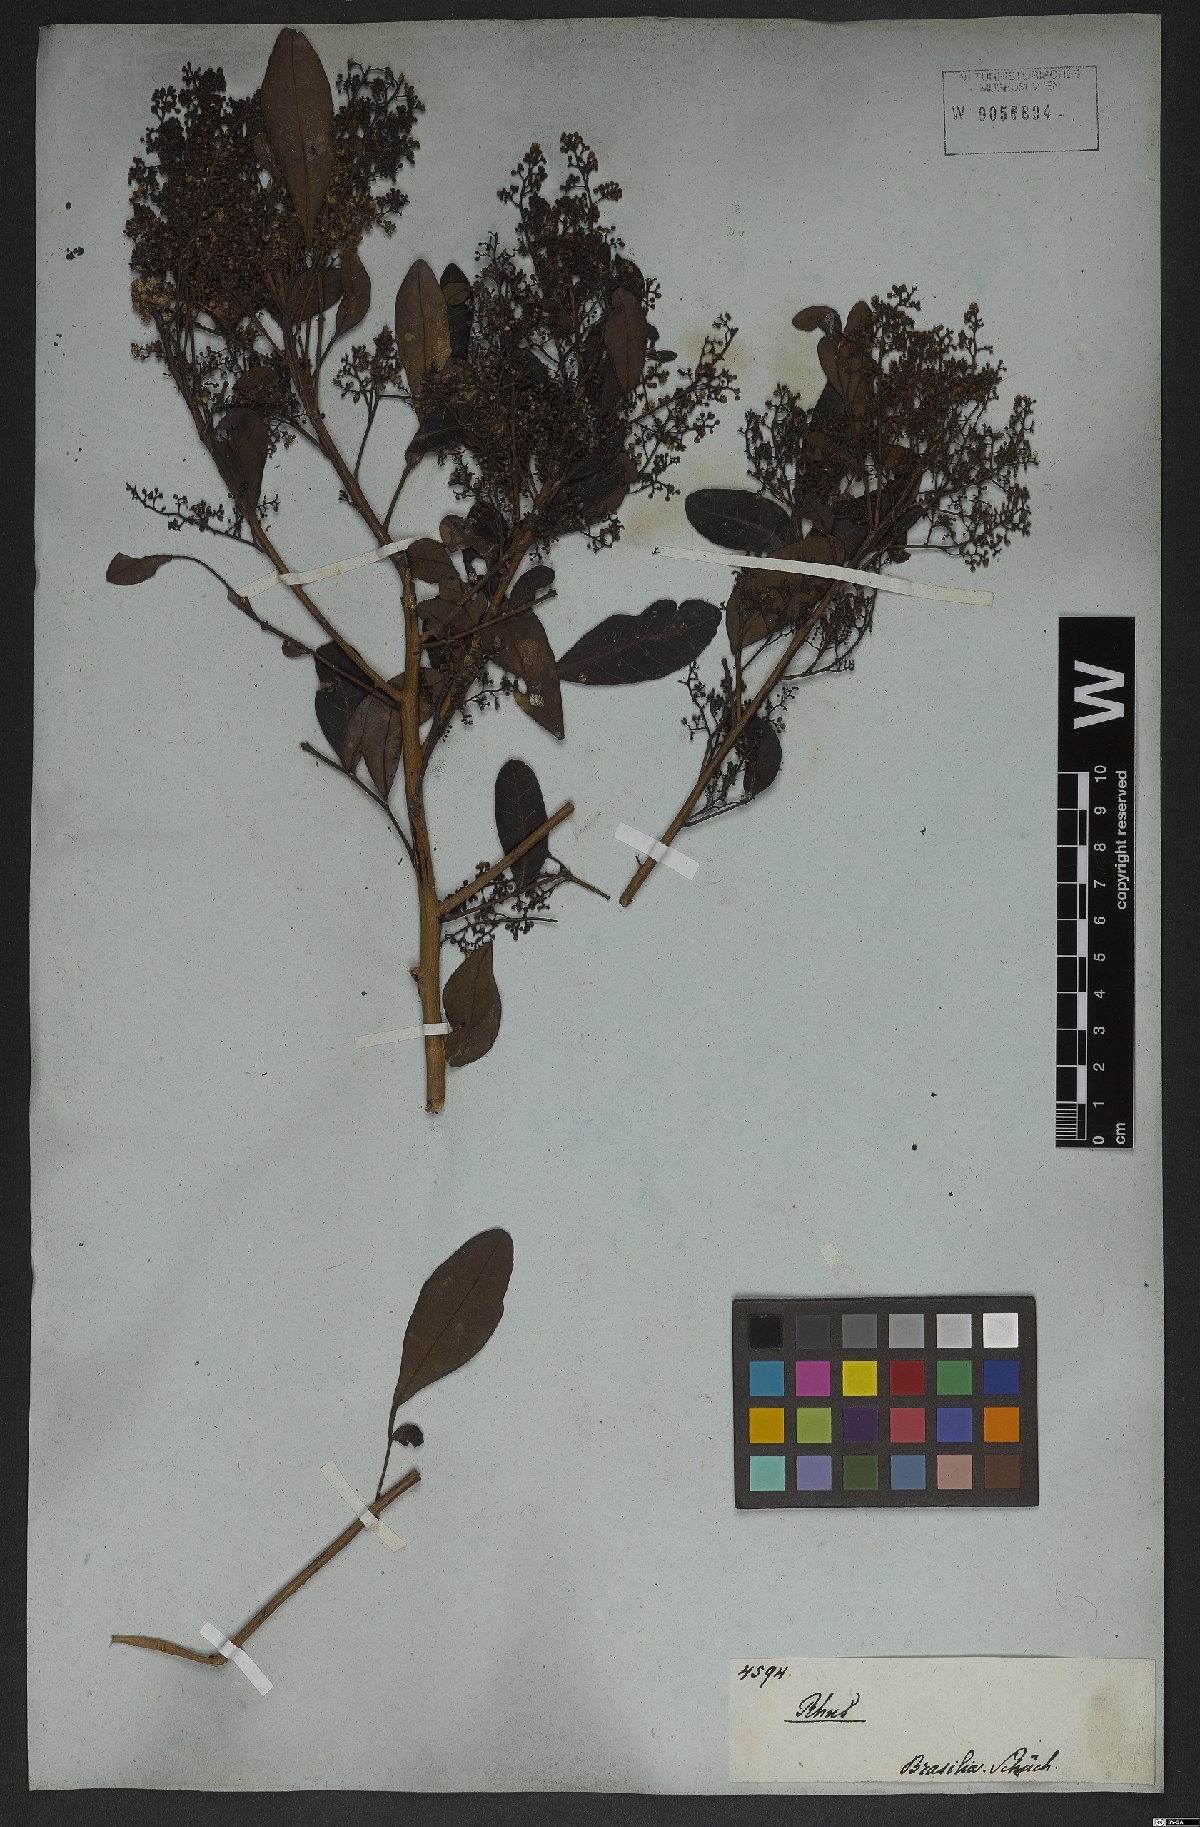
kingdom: Plantae
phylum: Tracheophyta
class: Magnoliopsida
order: Gentianales
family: Apocynaceae
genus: Tabernaemontana
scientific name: Tabernaemontana laeta
